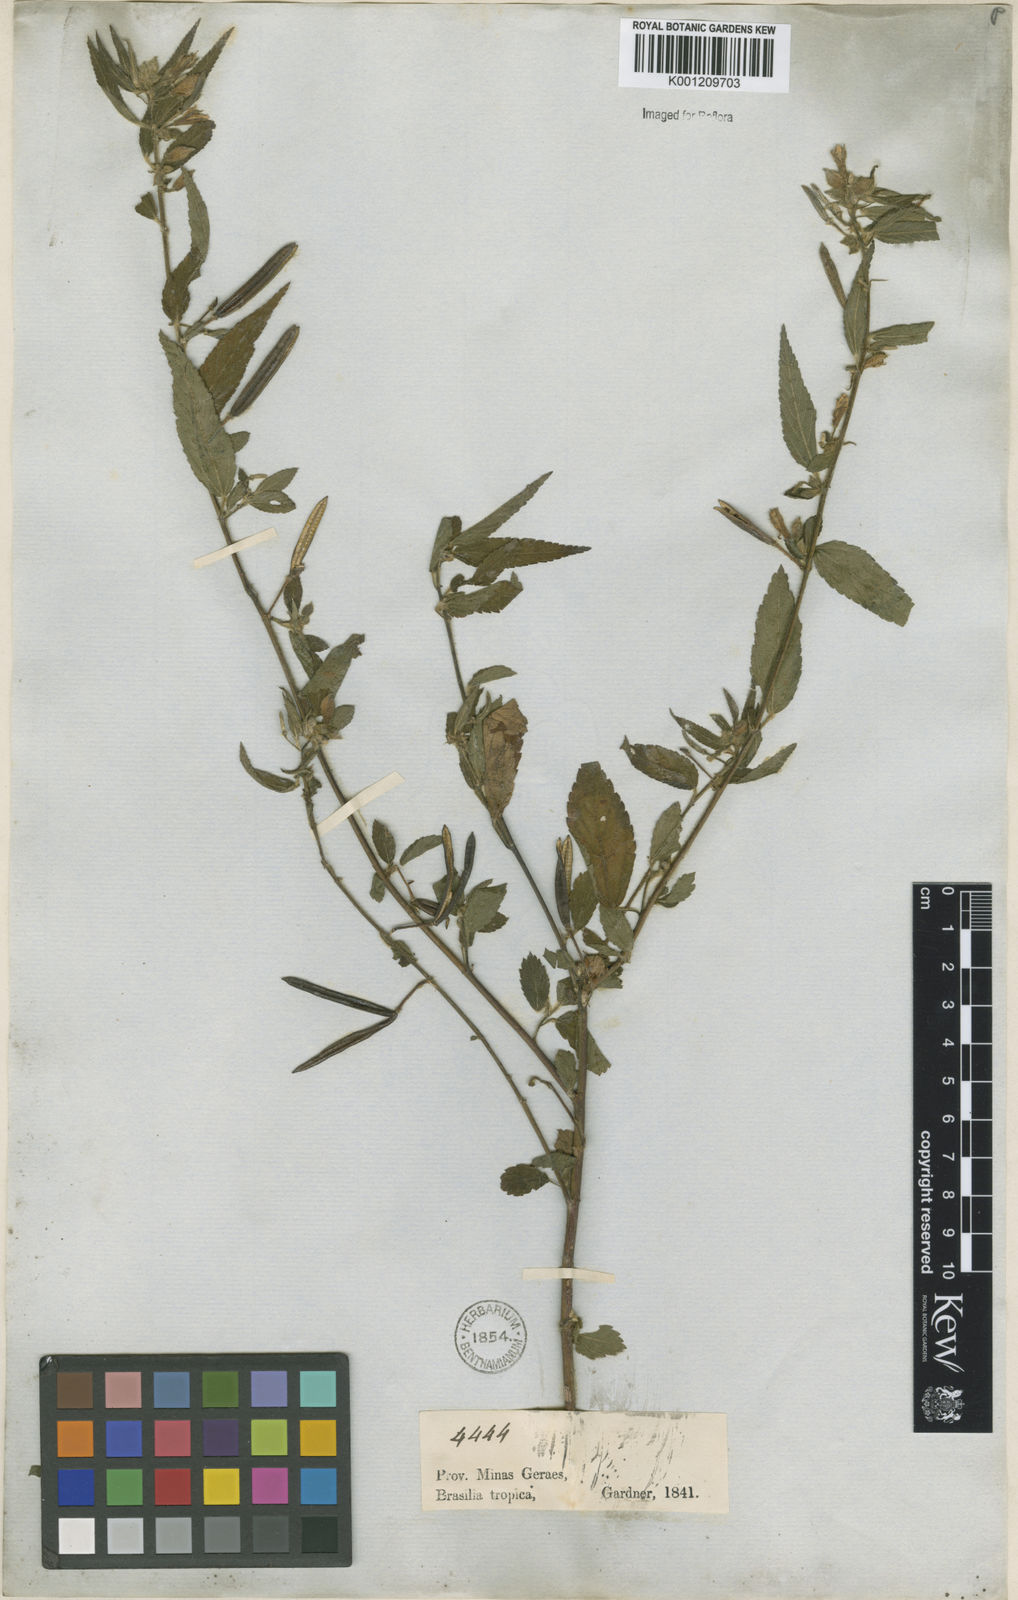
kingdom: Plantae
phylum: Tracheophyta
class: Magnoliopsida
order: Malvales
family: Malvaceae
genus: Corchorus
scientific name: Corchorus
